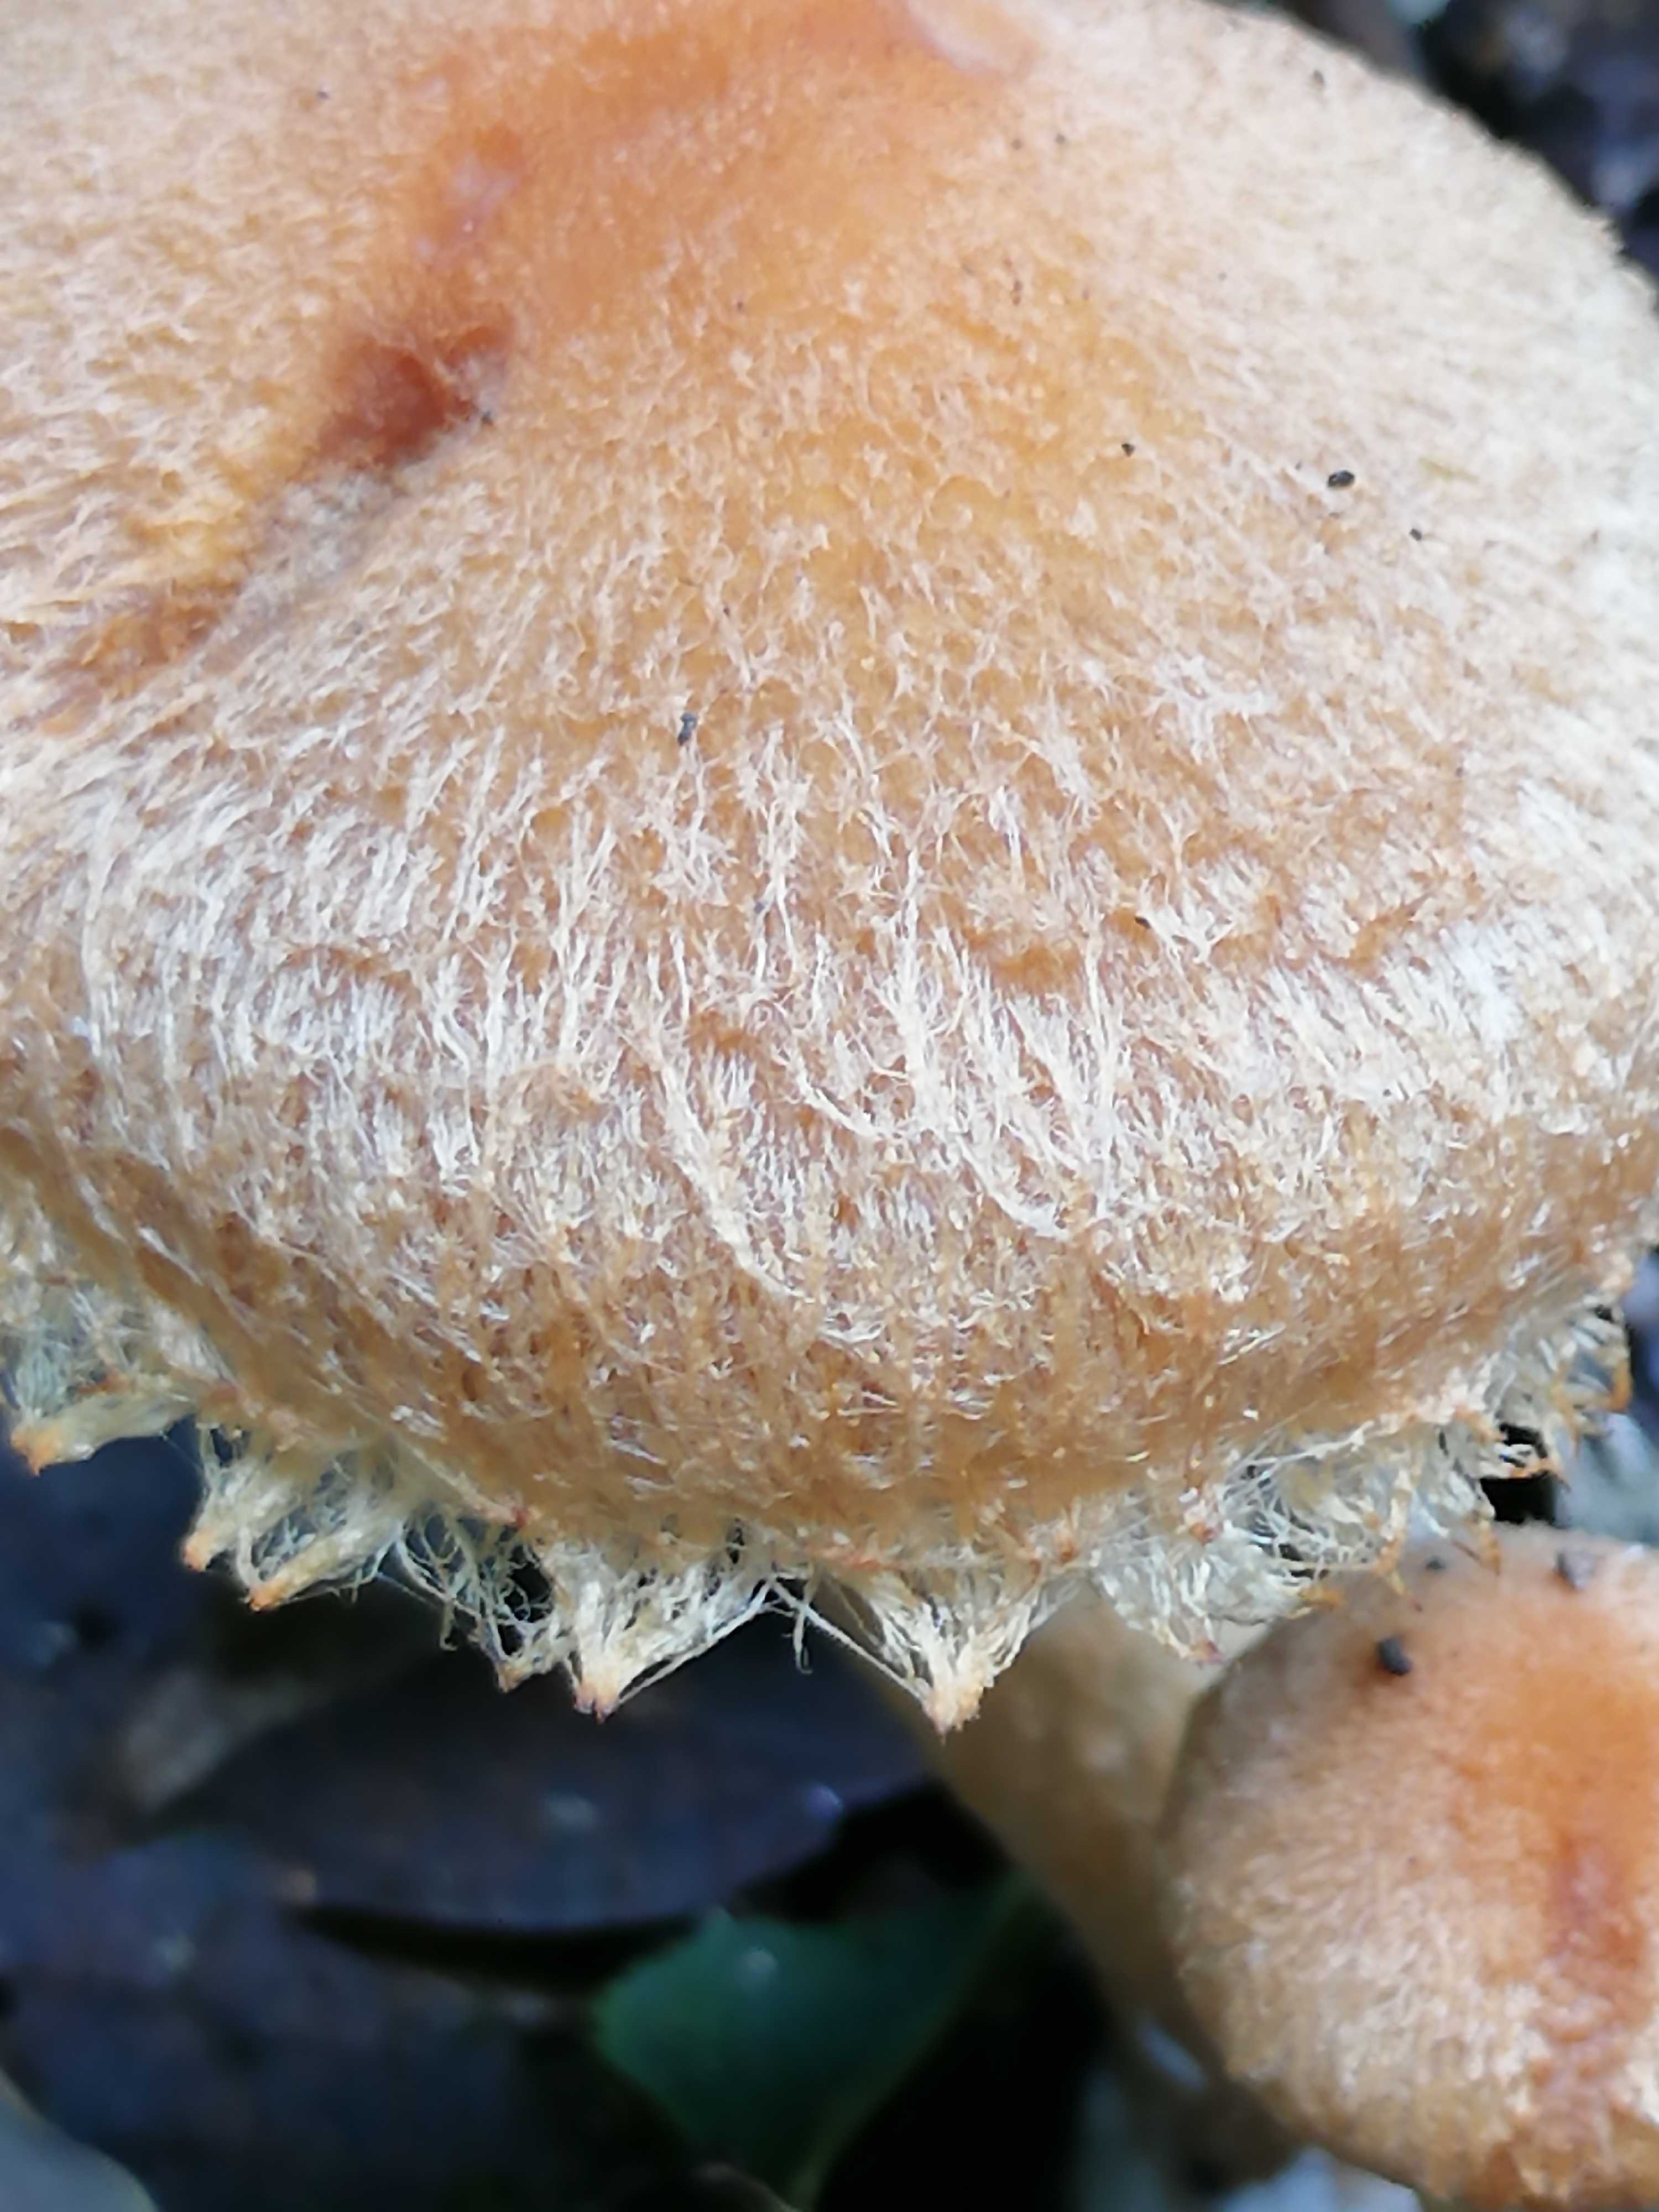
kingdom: Fungi
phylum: Basidiomycota
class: Agaricomycetes
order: Agaricales
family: Psathyrellaceae
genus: Lacrymaria
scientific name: Lacrymaria pyrotricha
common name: ildhåret mørkhat
